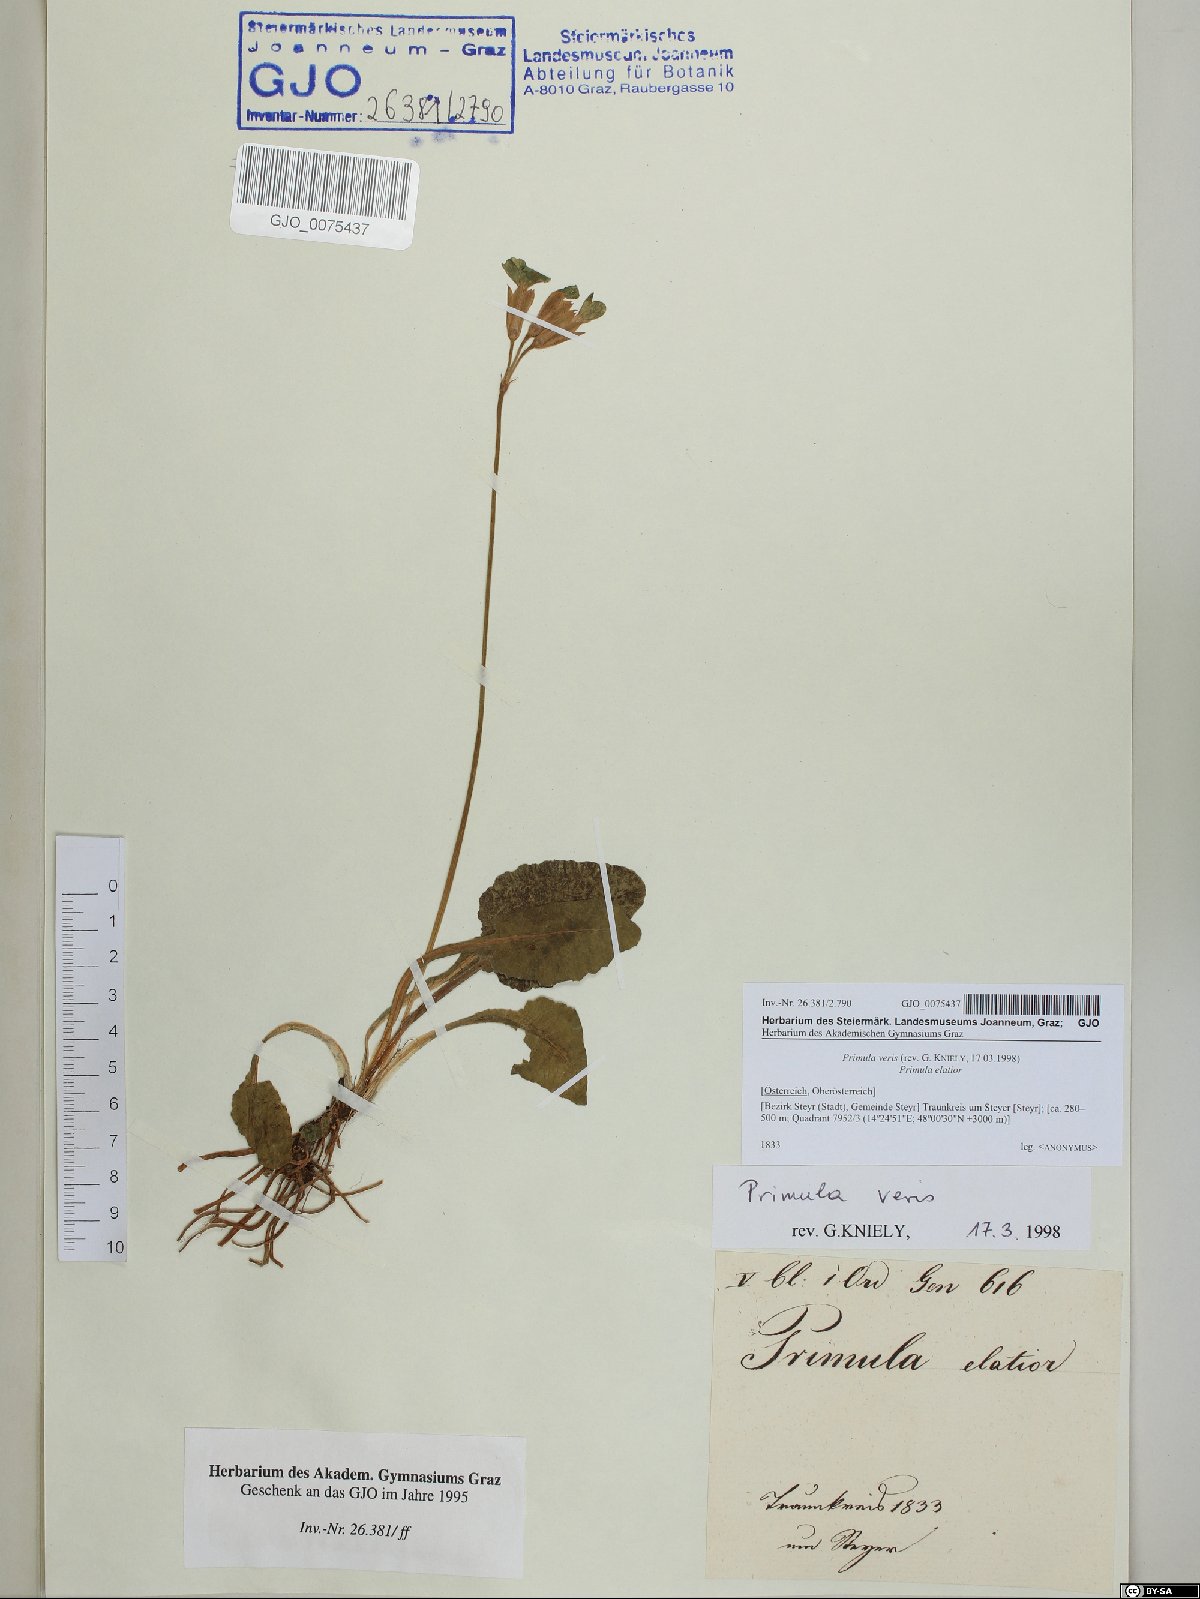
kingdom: Plantae
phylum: Tracheophyta
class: Magnoliopsida
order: Ericales
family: Primulaceae
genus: Primula
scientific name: Primula veris
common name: Cowslip
